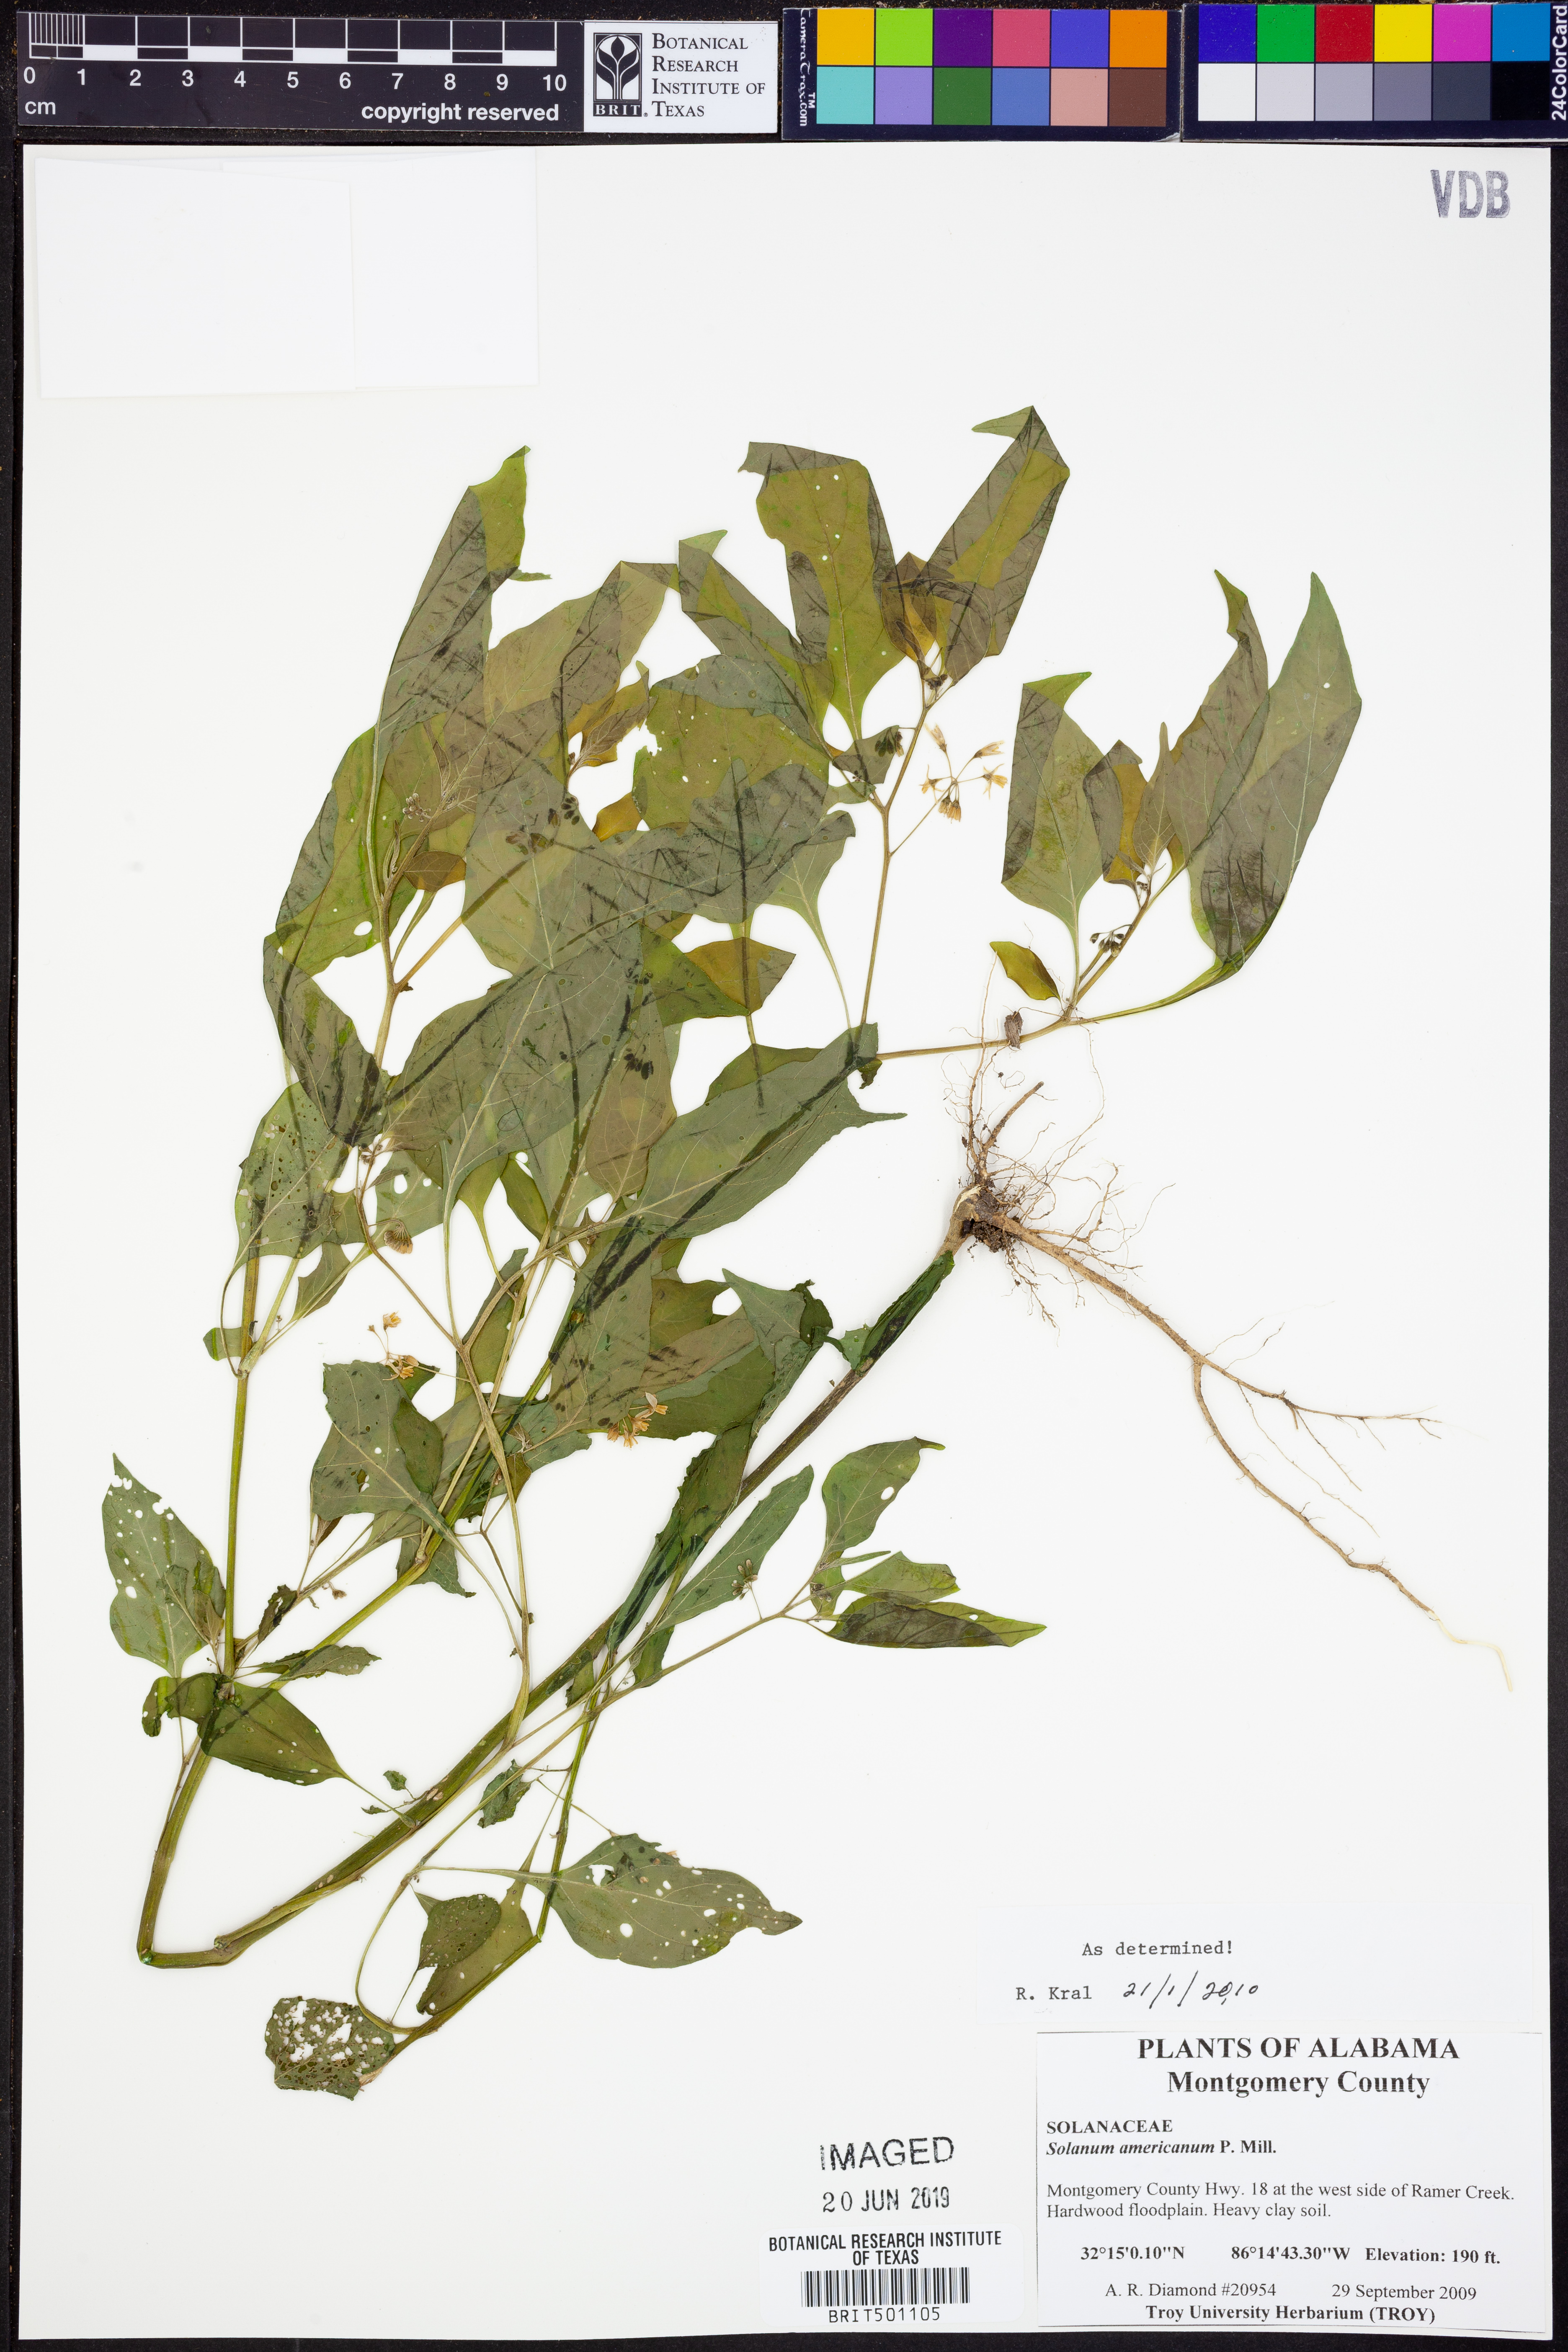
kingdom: Plantae
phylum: Tracheophyta
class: Magnoliopsida
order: Solanales
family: Solanaceae
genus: Solanum
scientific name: Solanum americanum
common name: American black nightshade
